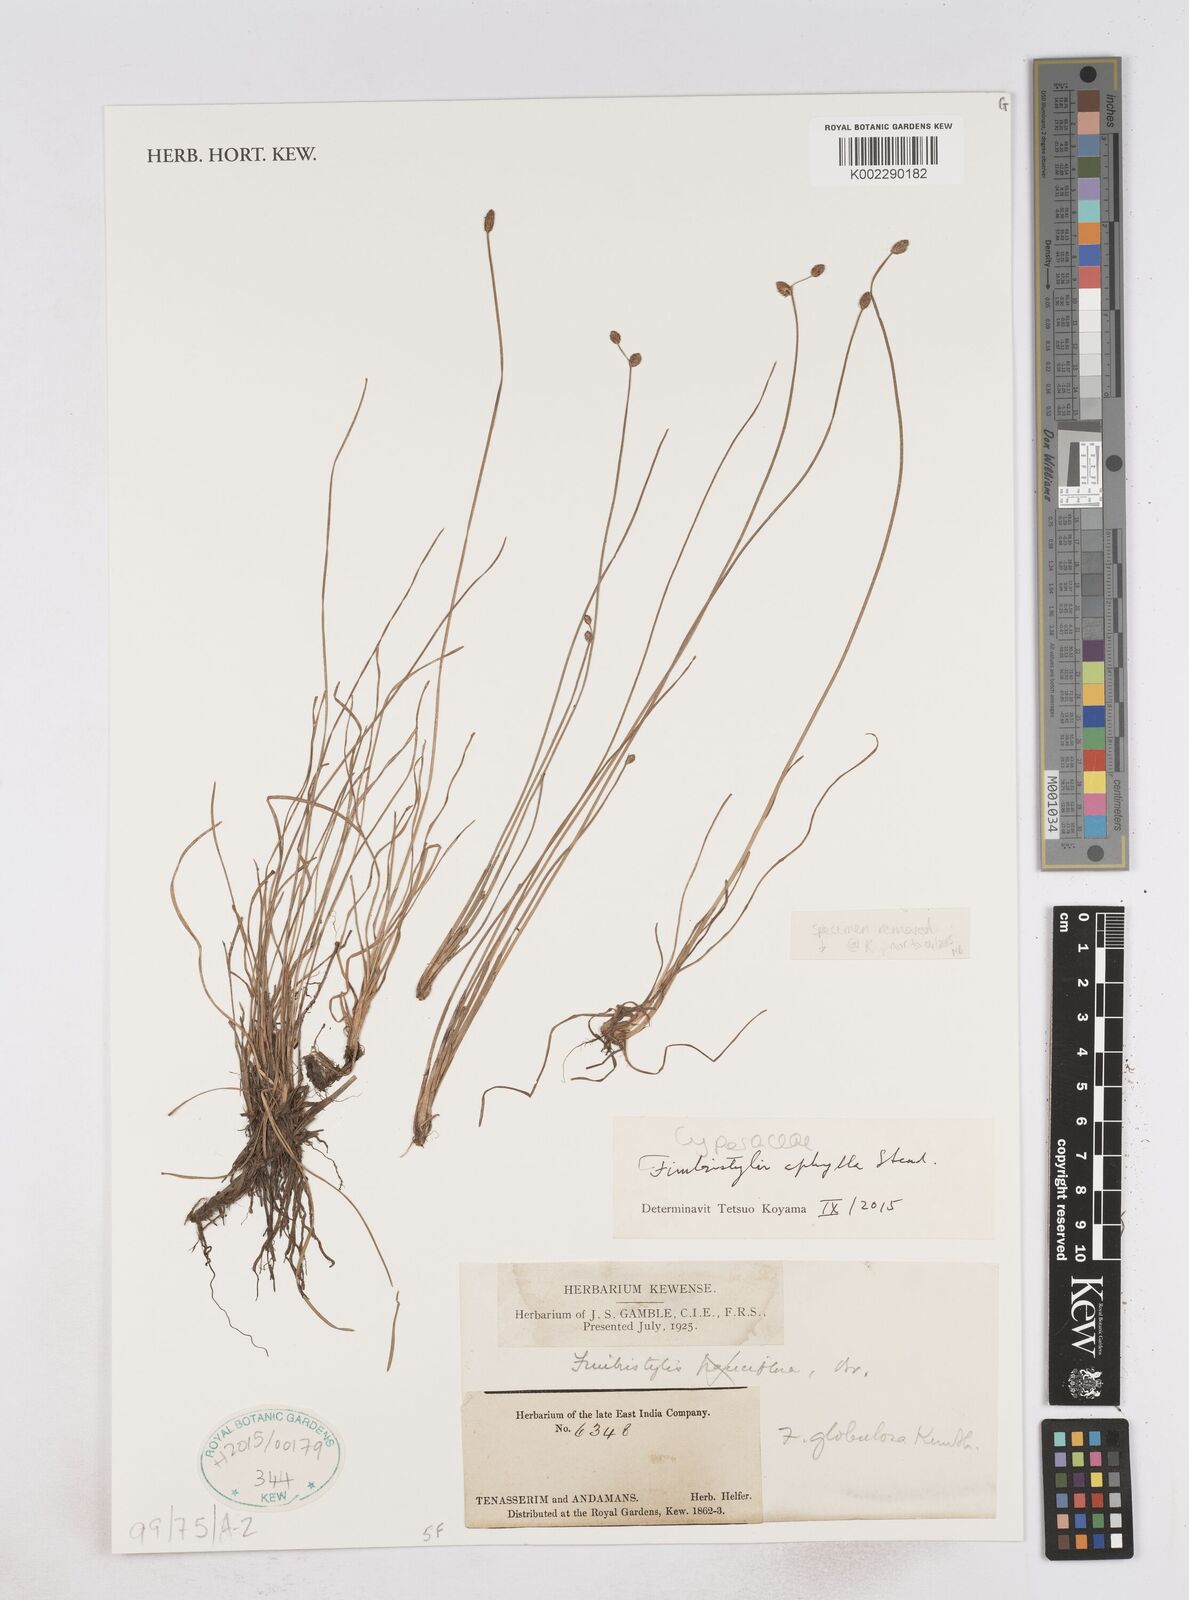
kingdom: Plantae
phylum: Tracheophyta
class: Liliopsida
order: Poales
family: Cyperaceae
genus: Fimbristylis
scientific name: Fimbristylis aphylla
